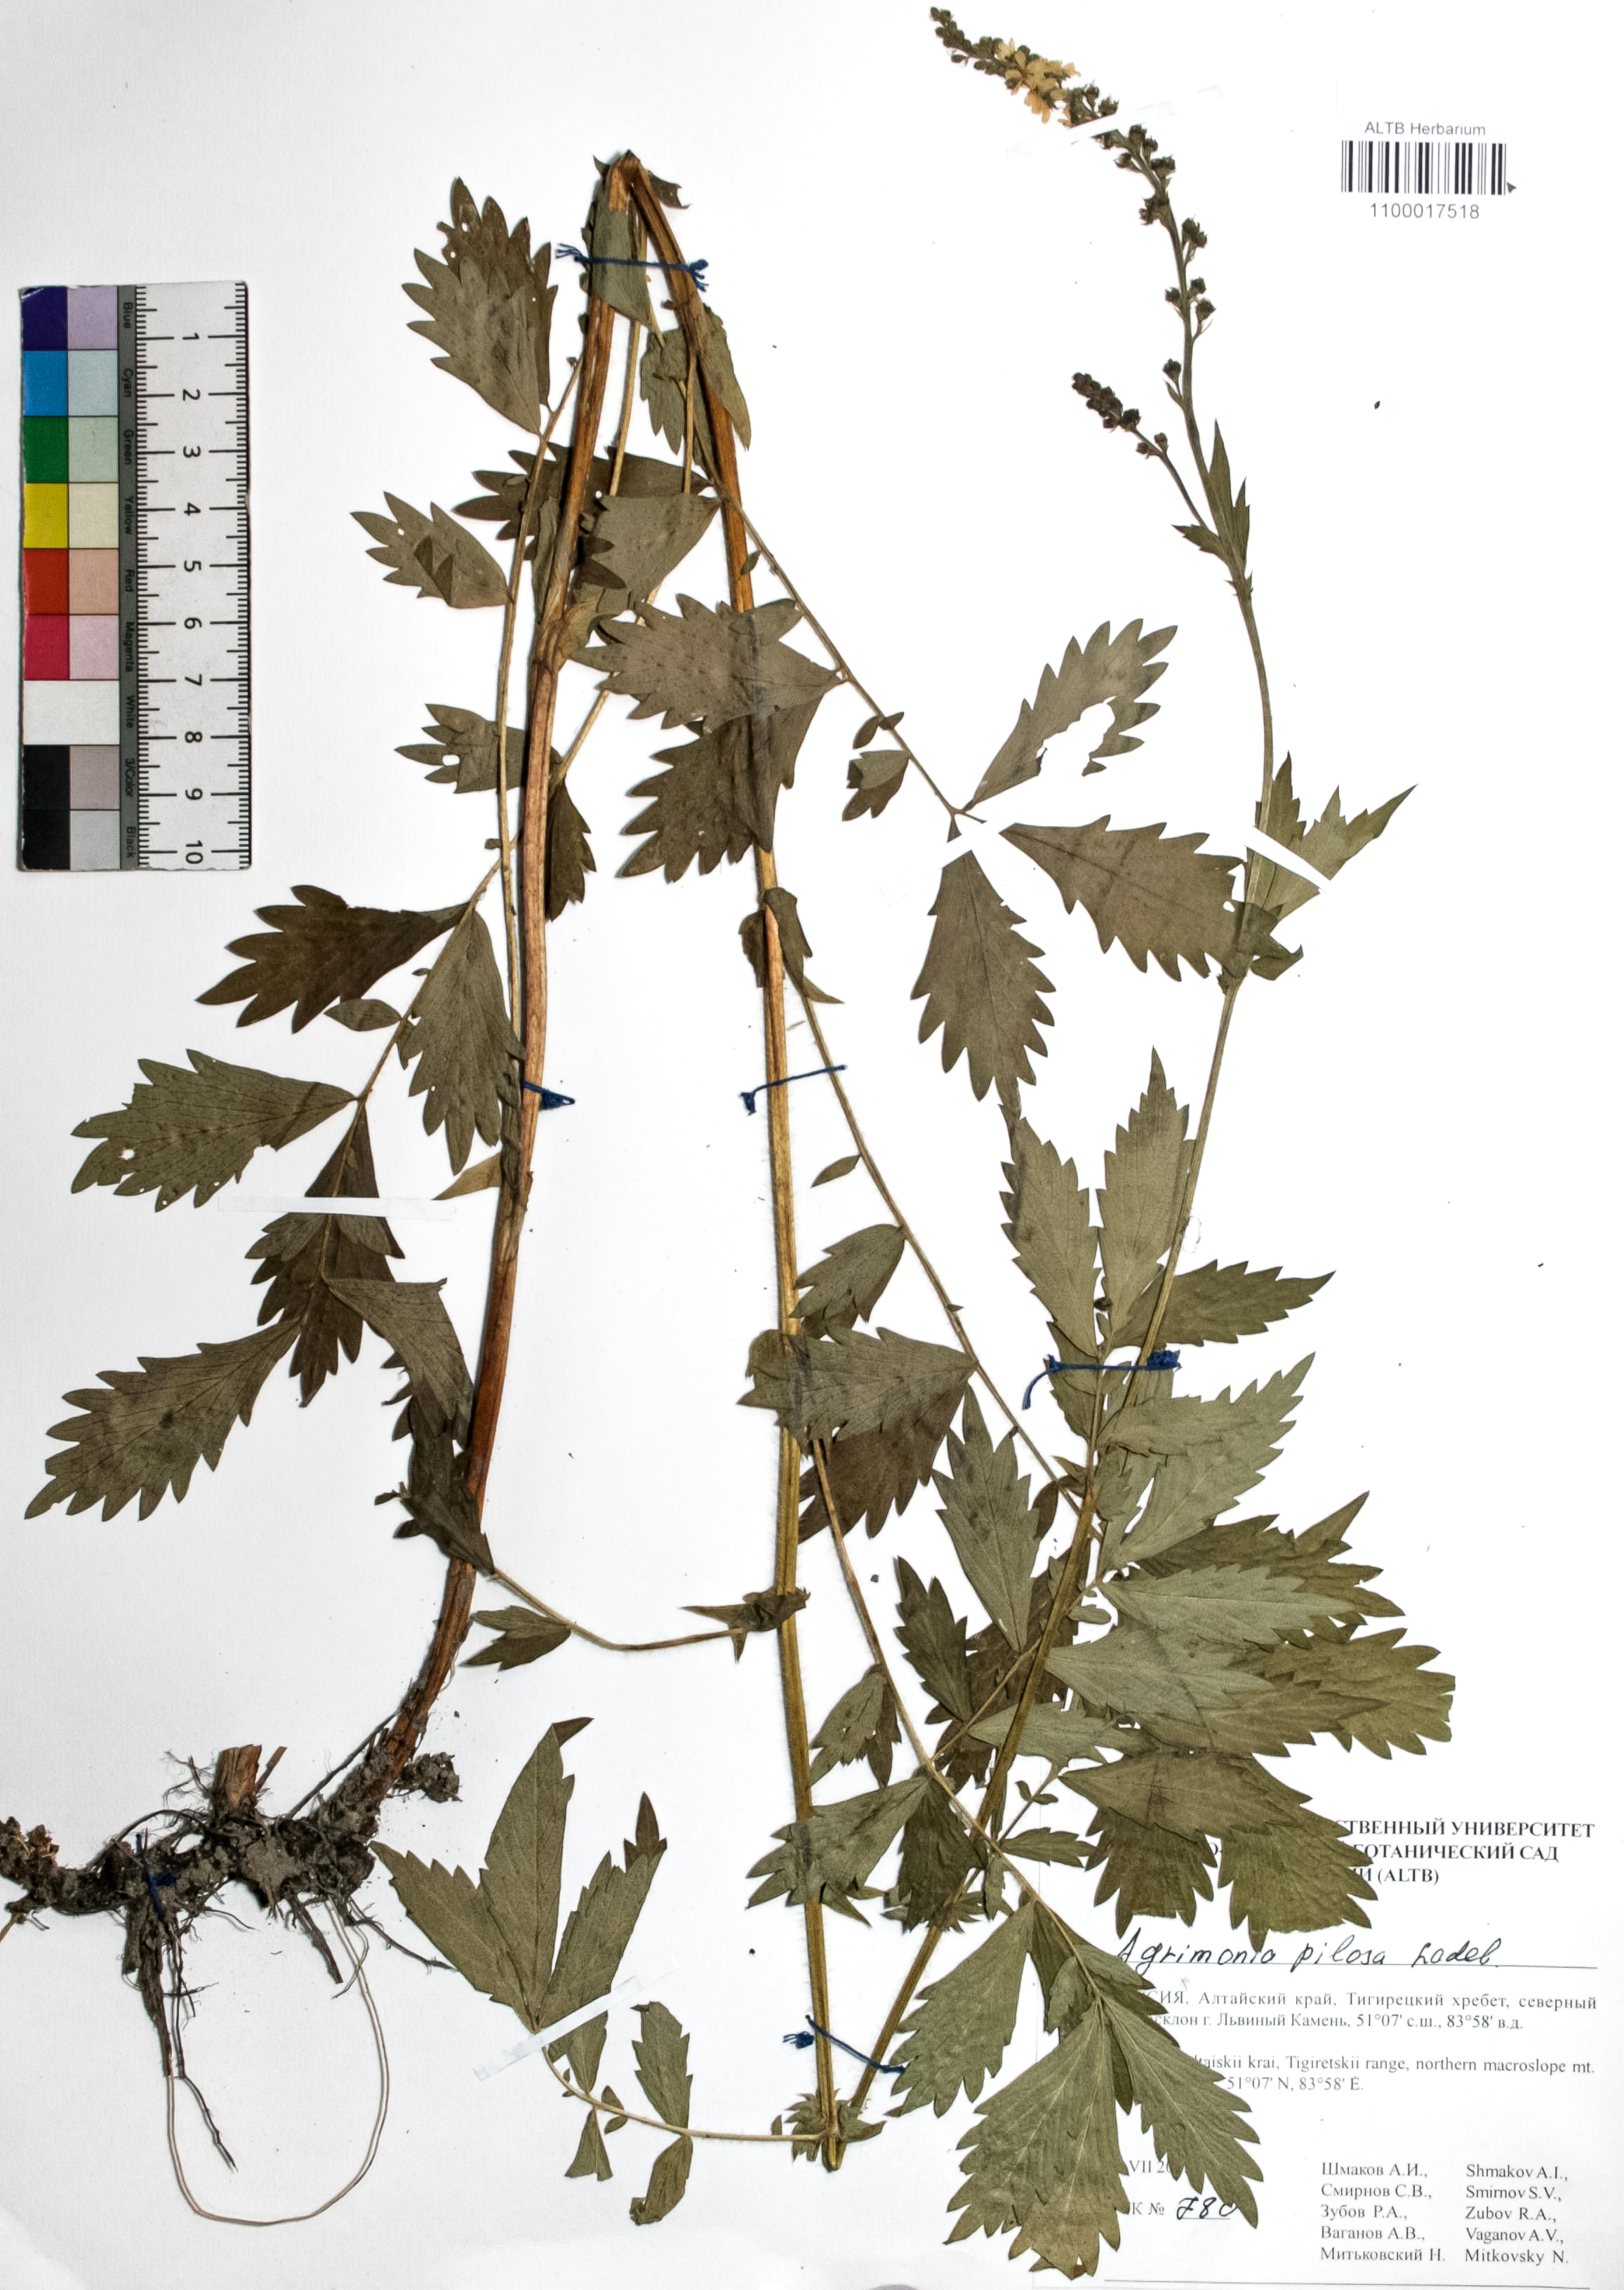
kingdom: Plantae
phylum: Tracheophyta
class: Magnoliopsida
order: Rosales
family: Rosaceae
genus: Agrimonia
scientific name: Agrimonia pilosa
